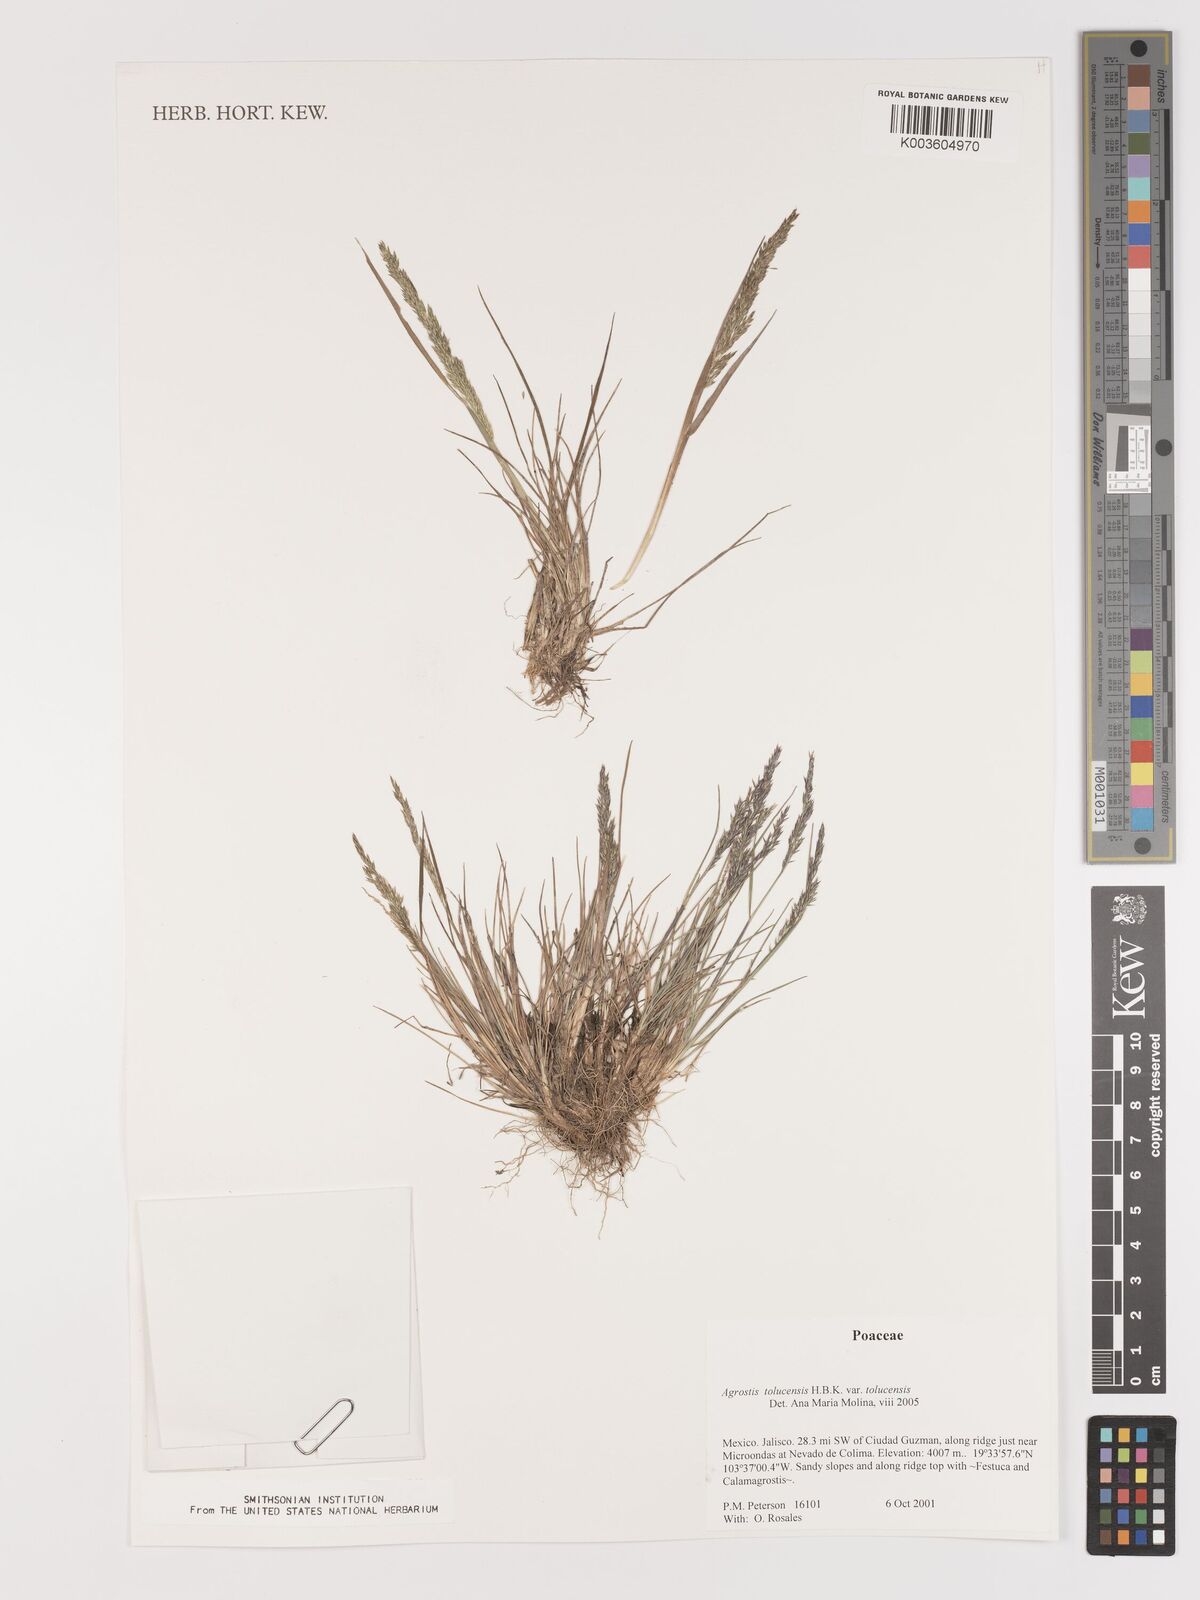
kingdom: Plantae
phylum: Tracheophyta
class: Liliopsida
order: Poales
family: Poaceae
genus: Agrostis
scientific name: Agrostis tolucensis
